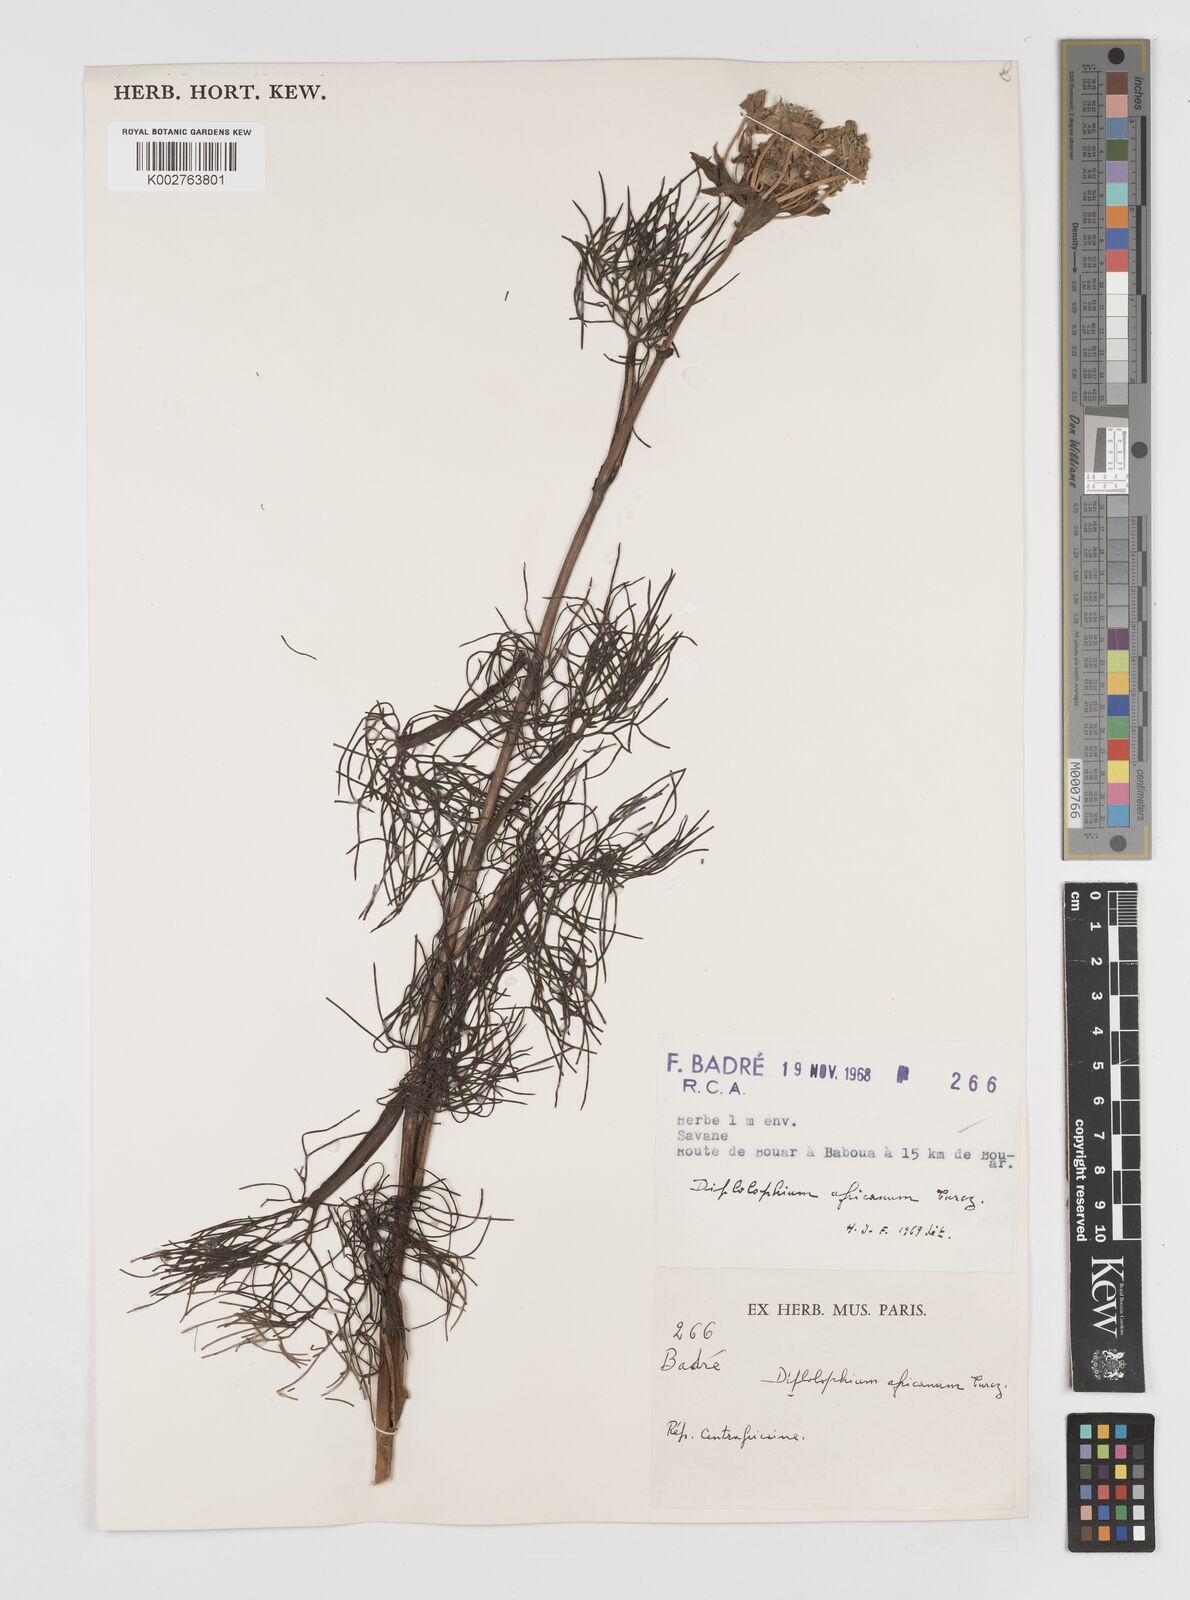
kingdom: Plantae
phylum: Tracheophyta
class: Magnoliopsida
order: Apiales
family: Apiaceae
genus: Diplolophium
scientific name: Diplolophium africanum
